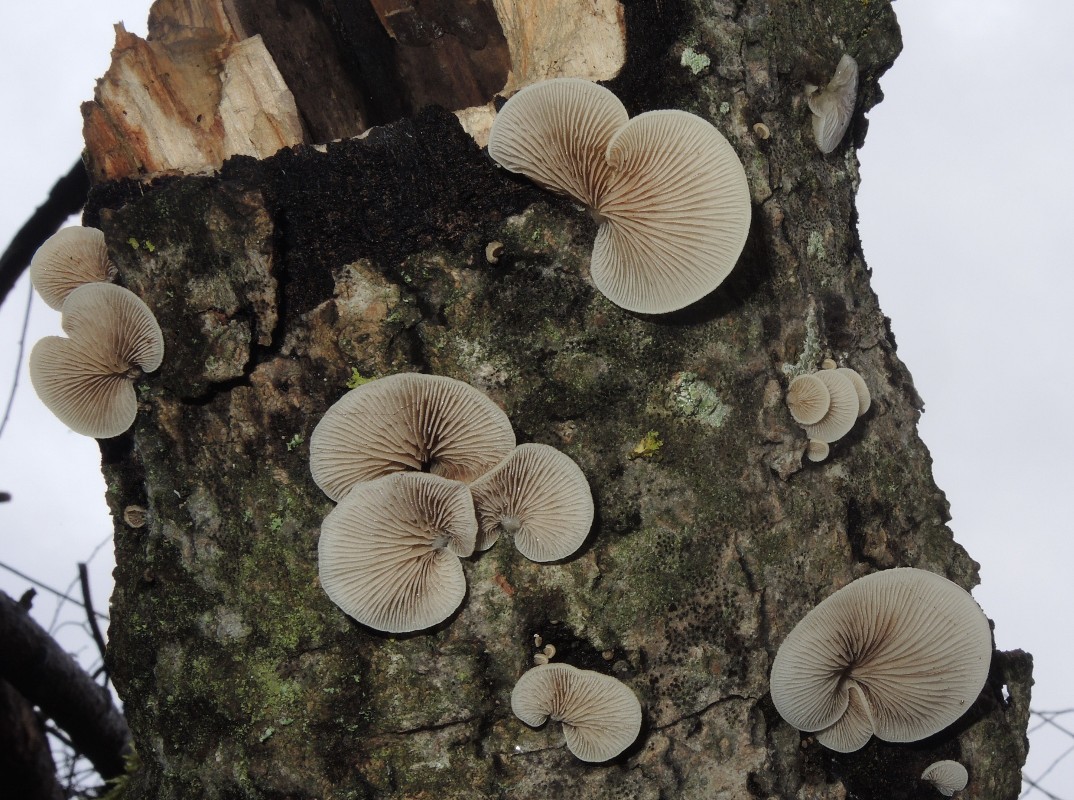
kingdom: Fungi
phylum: Basidiomycota
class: Agaricomycetes
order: Agaricales
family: Crepidotaceae
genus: Crepidotus
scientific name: Crepidotus mollis
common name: blød muslingesvamp
